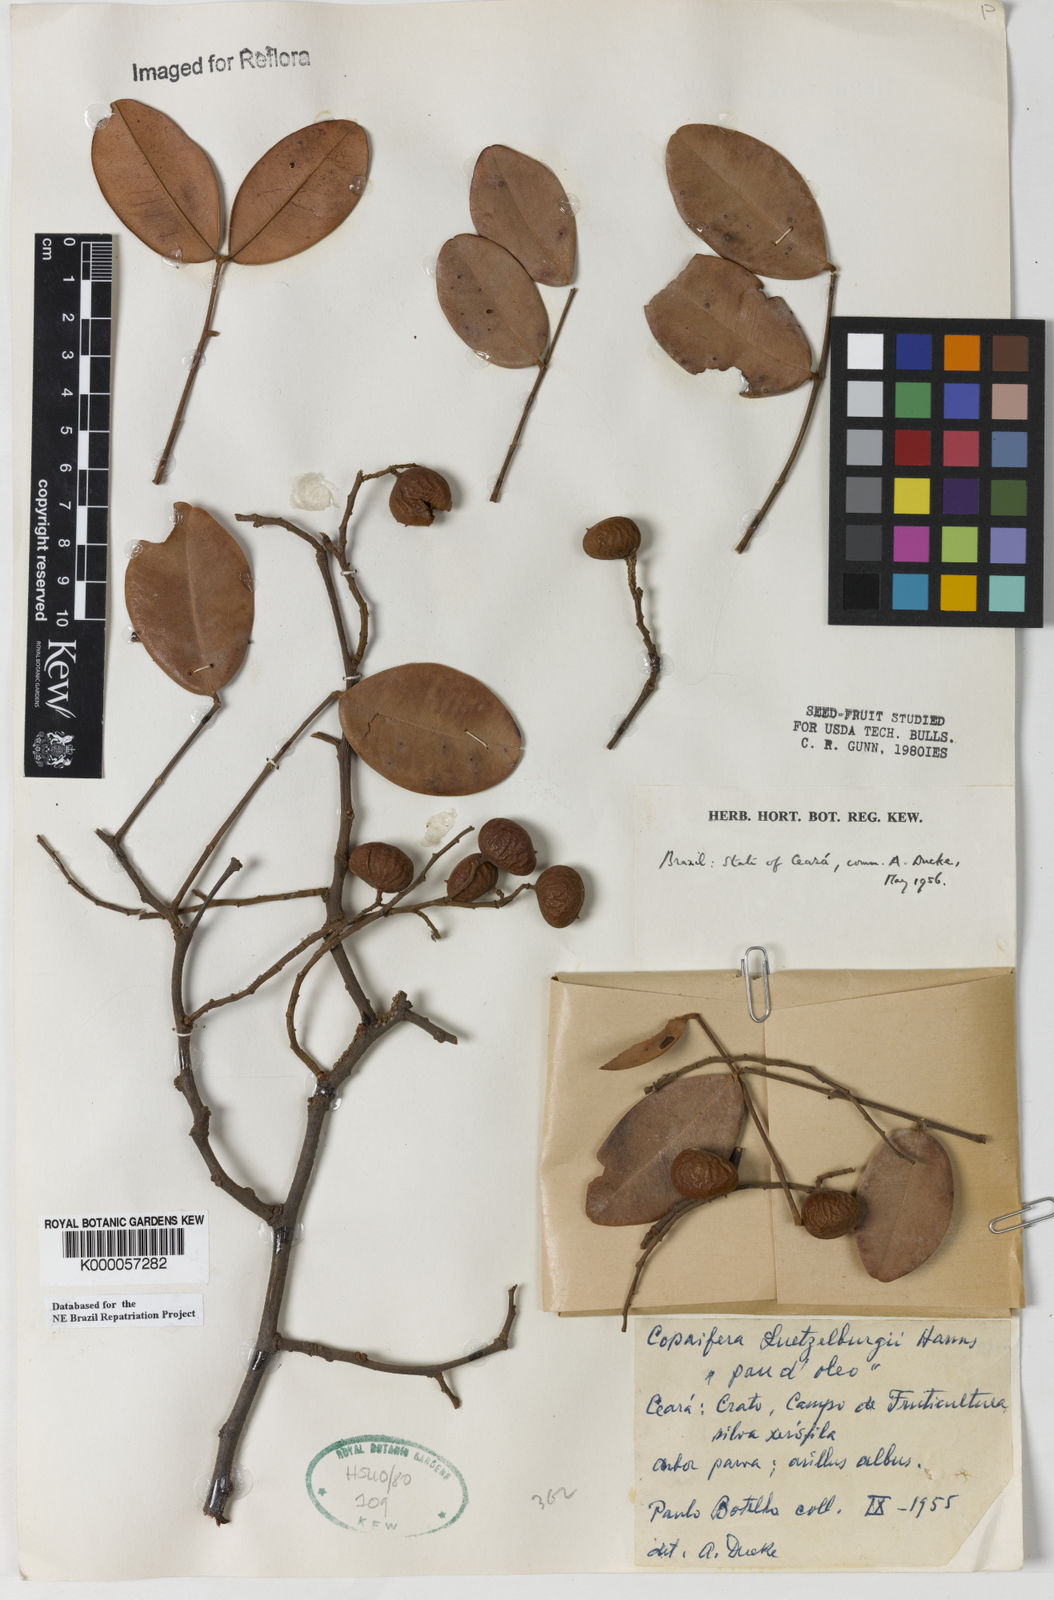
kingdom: Plantae
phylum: Tracheophyta
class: Magnoliopsida
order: Fabales
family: Fabaceae
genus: Copaifera
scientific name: Copaifera luetzelburgii
